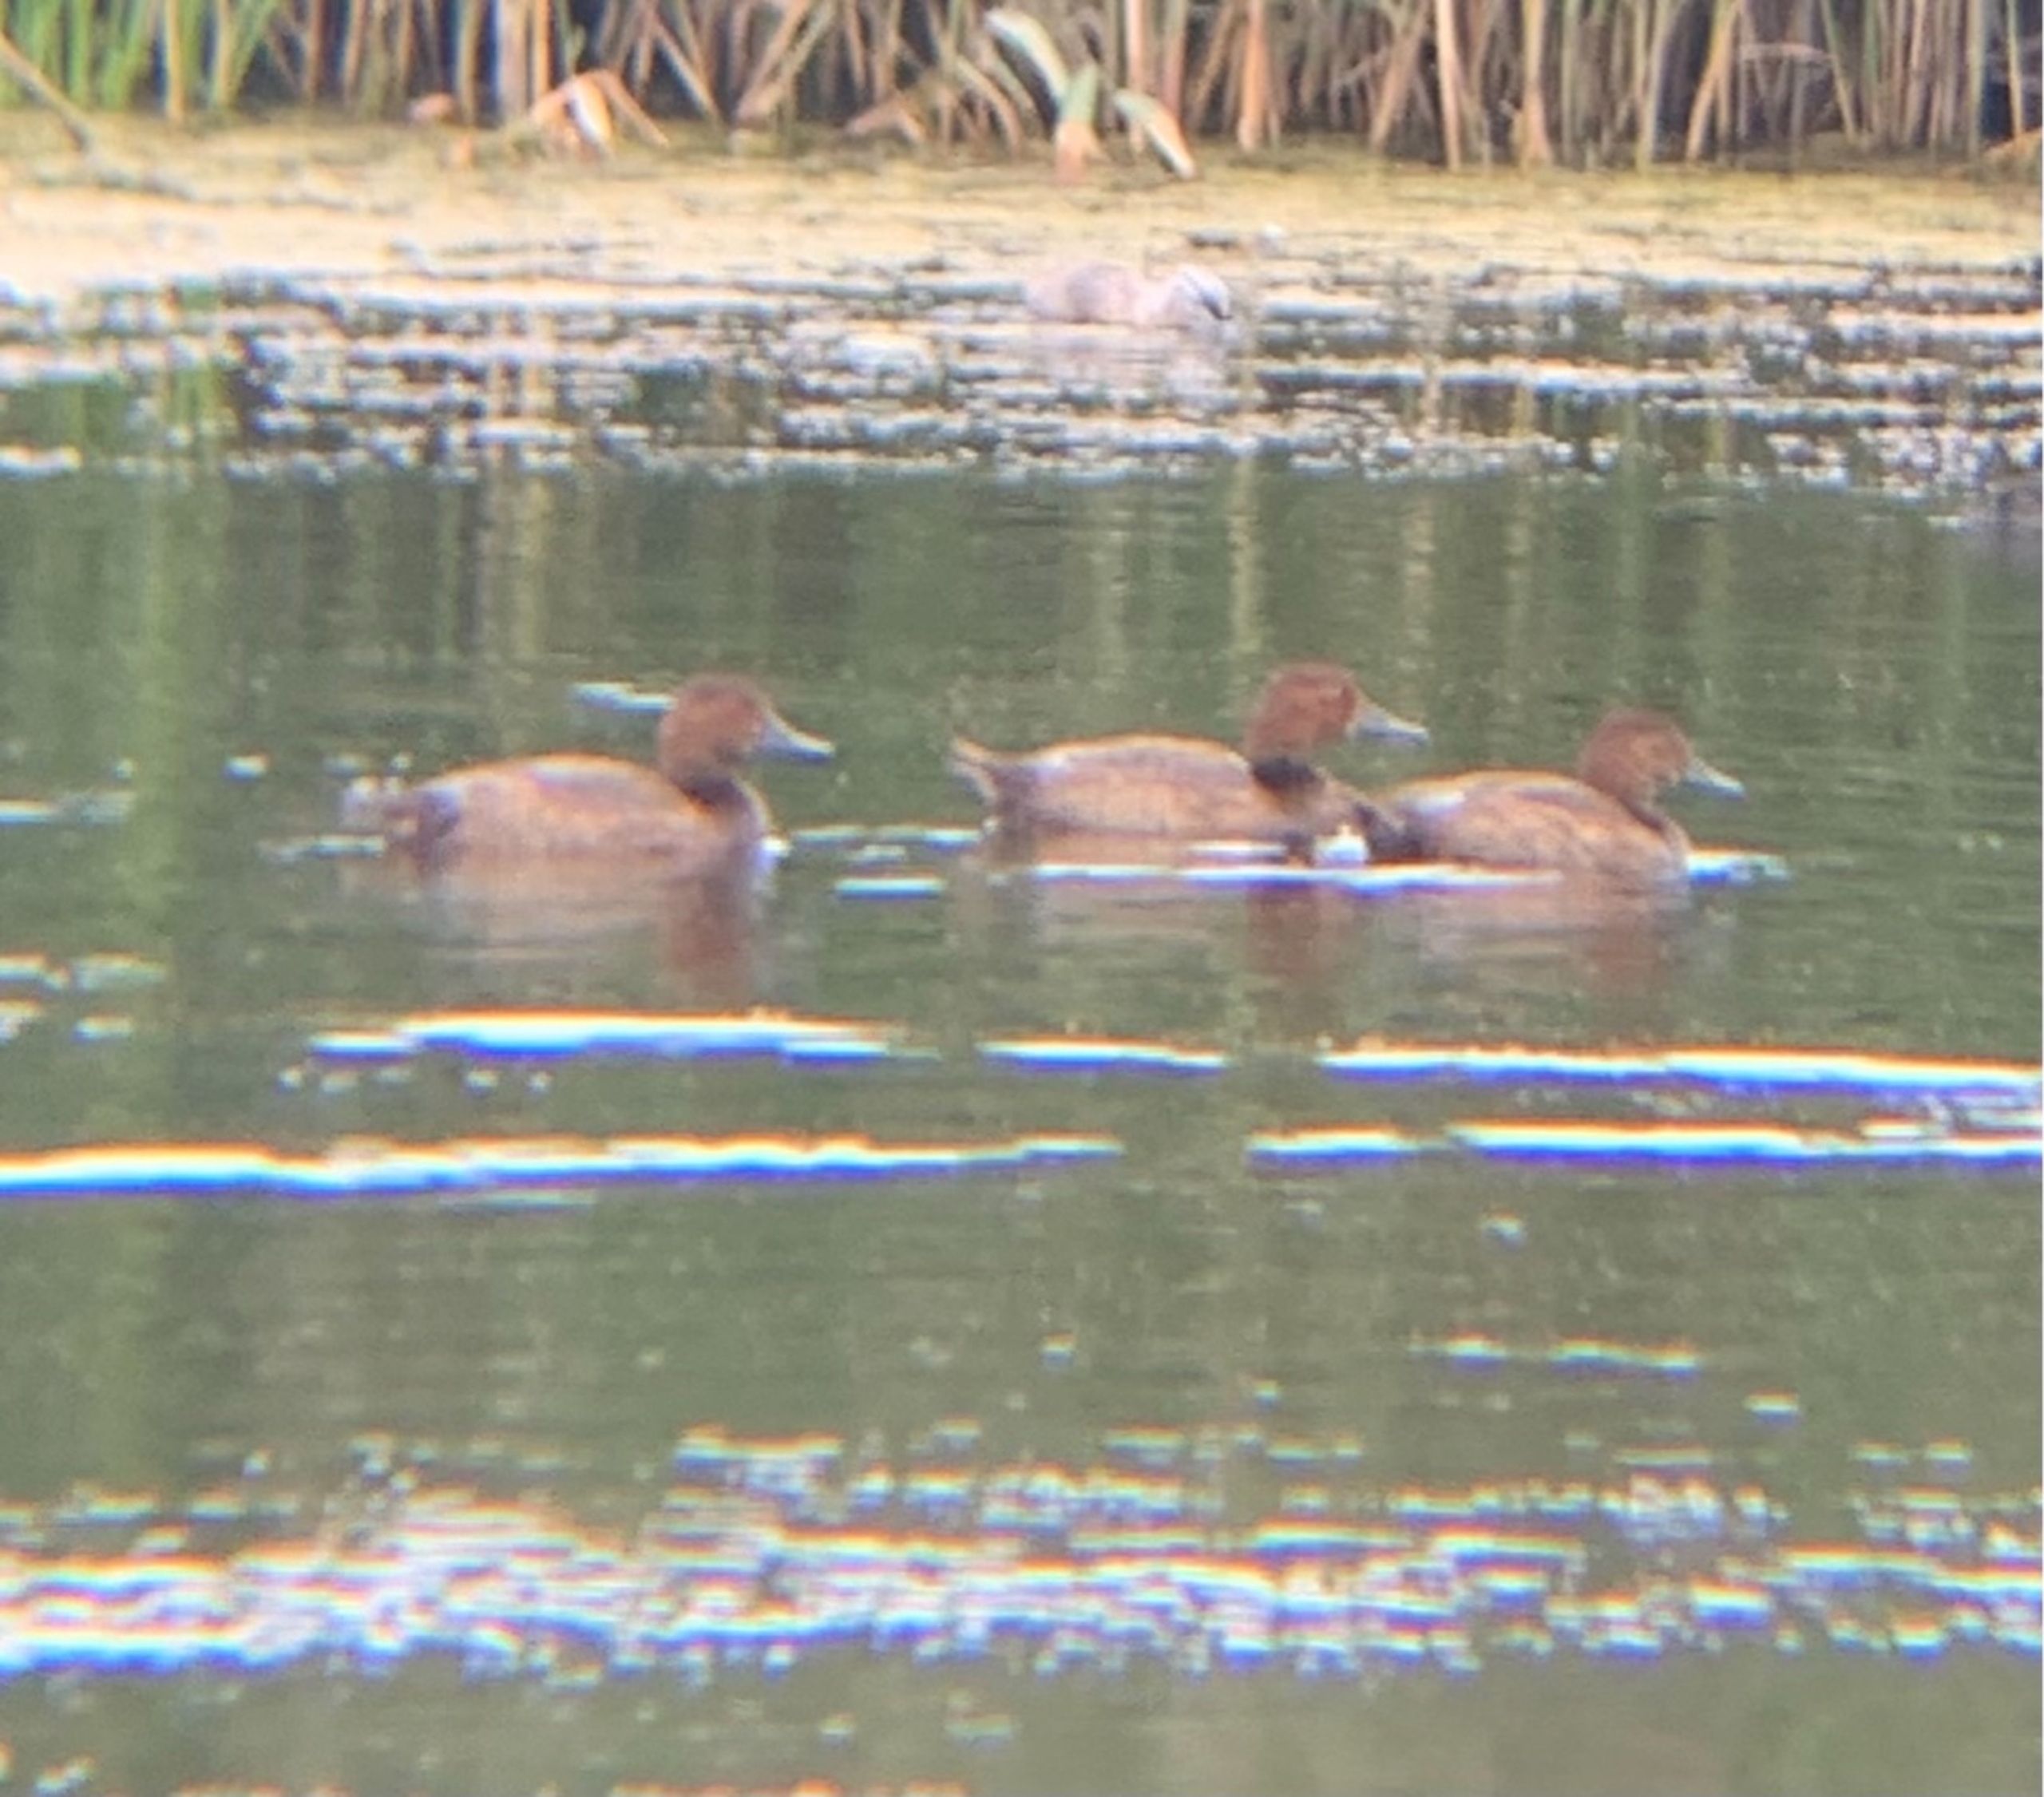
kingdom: Animalia
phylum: Chordata
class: Aves
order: Anseriformes
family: Anatidae
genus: Aythya
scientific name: Aythya ferina
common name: Taffeland
